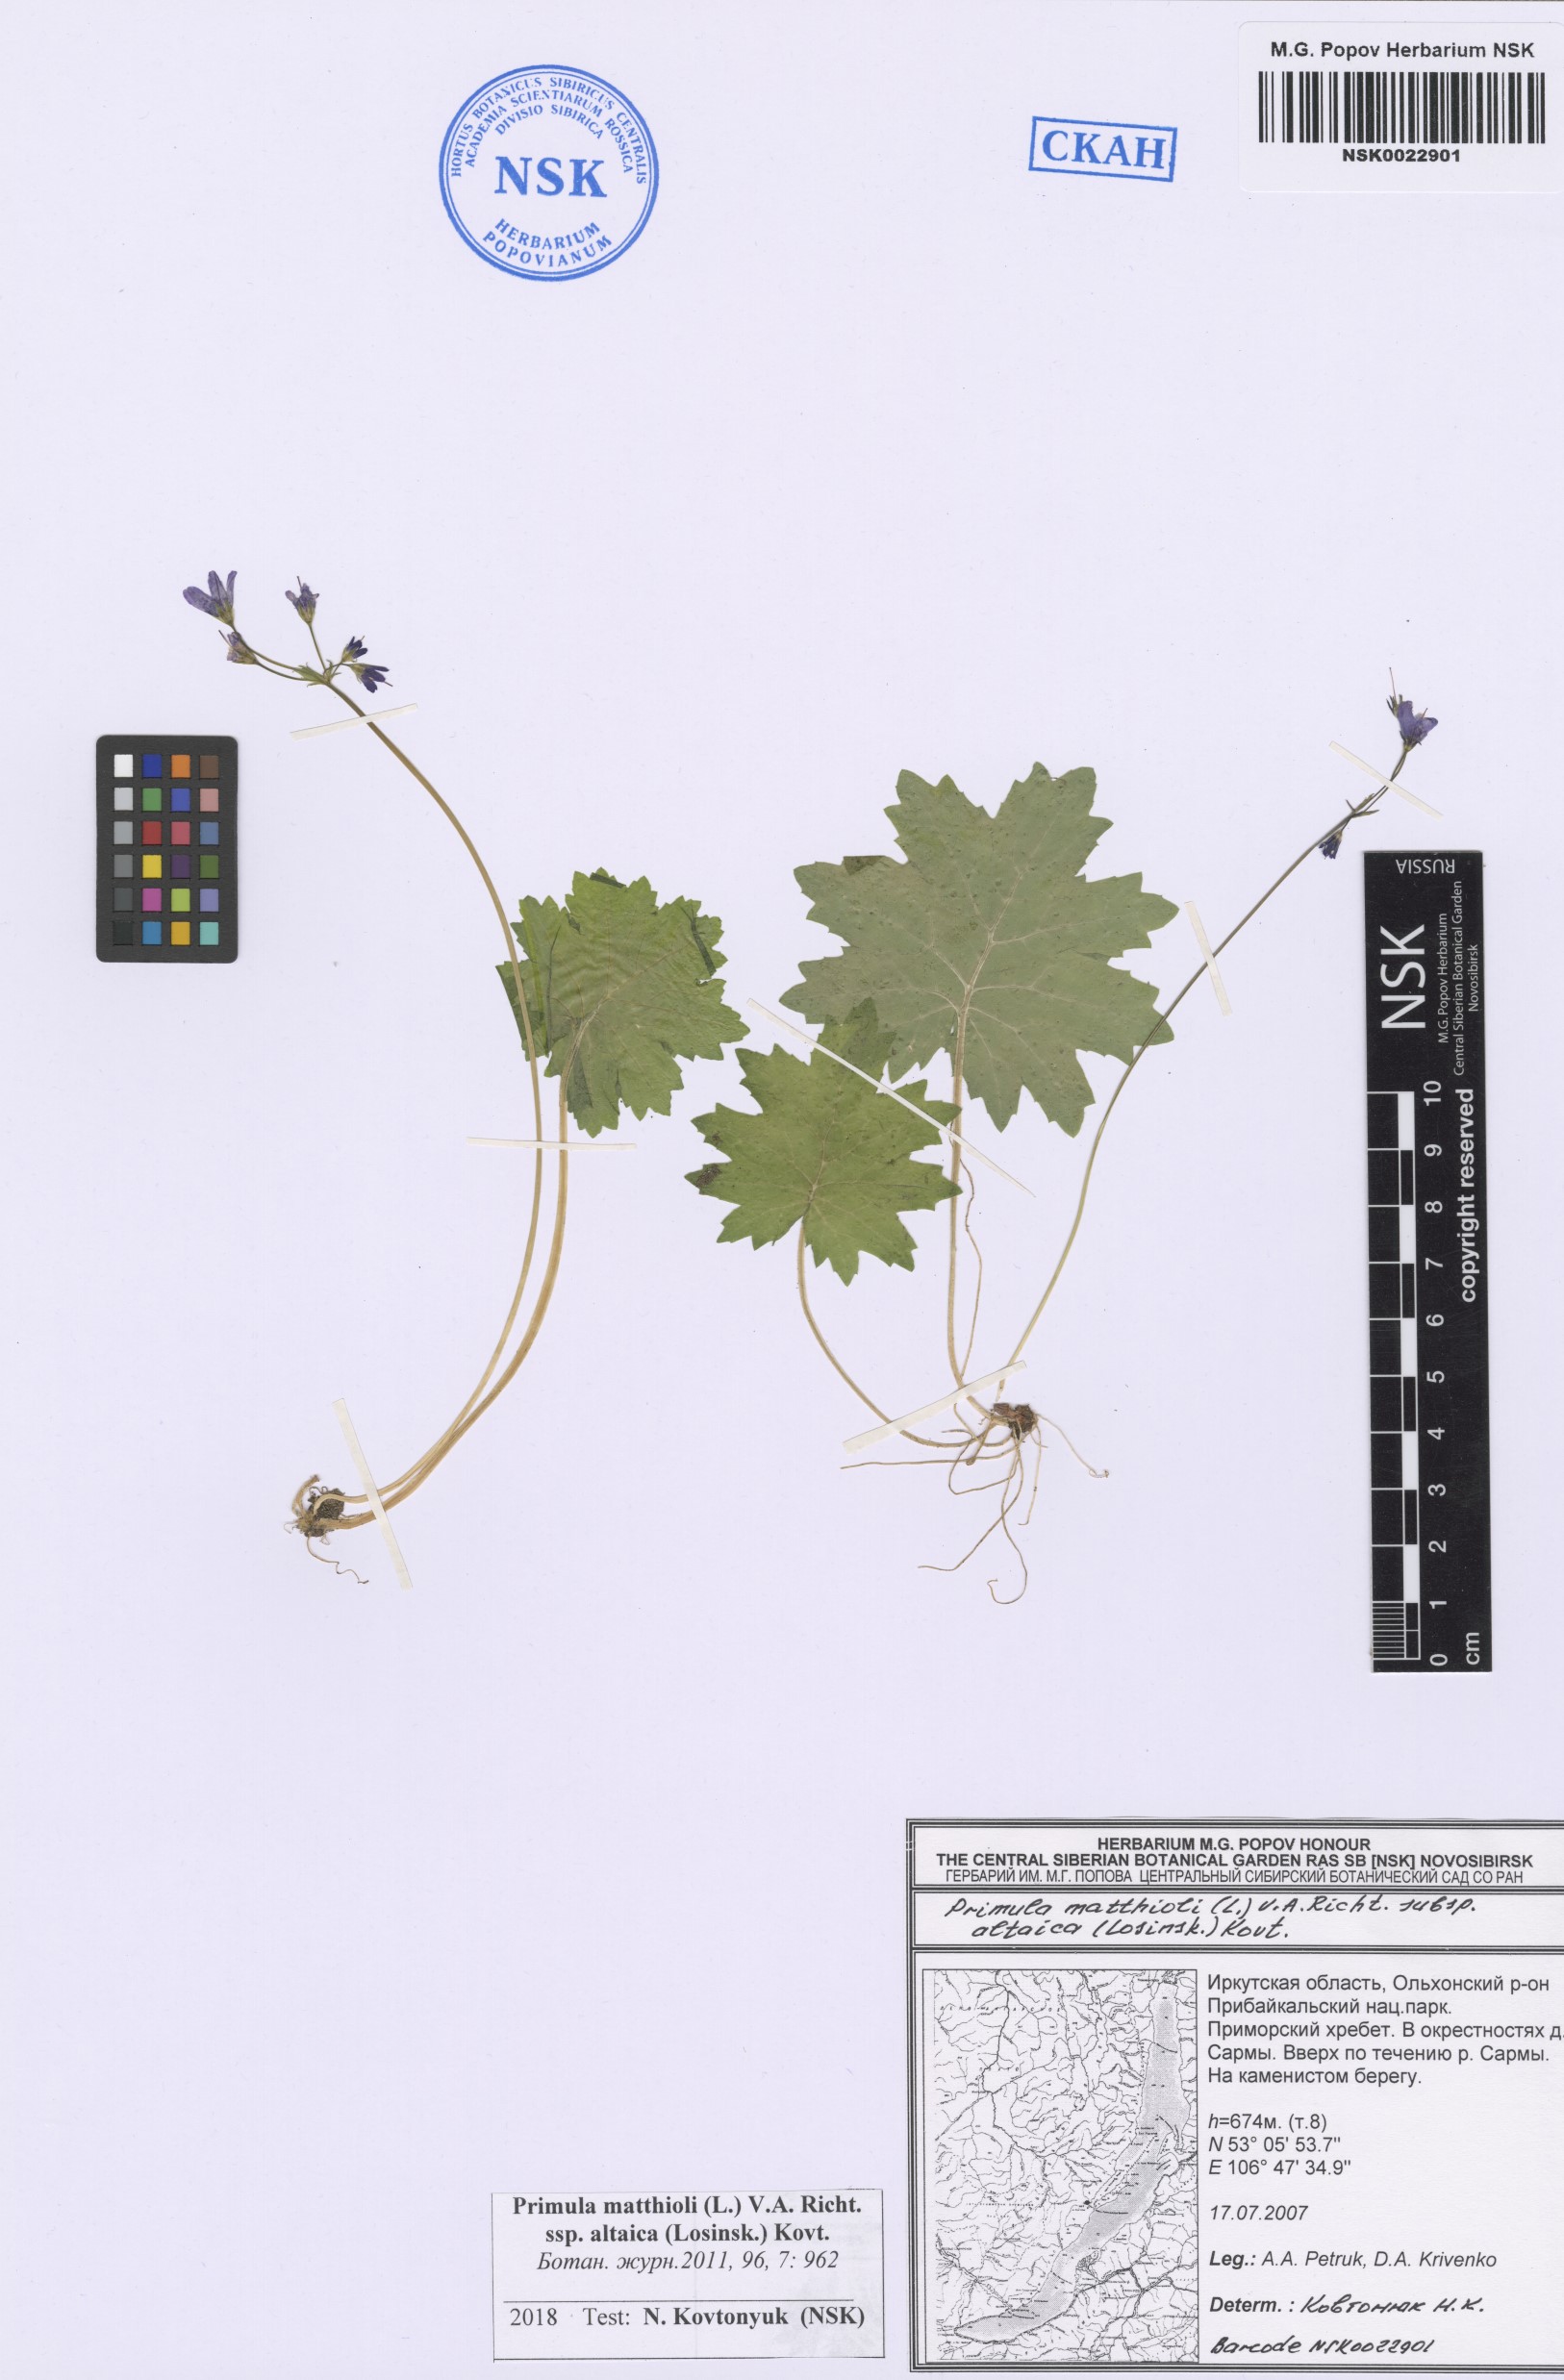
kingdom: Plantae
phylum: Tracheophyta
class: Magnoliopsida
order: Ericales
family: Primulaceae
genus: Primula
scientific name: Primula matthioli
